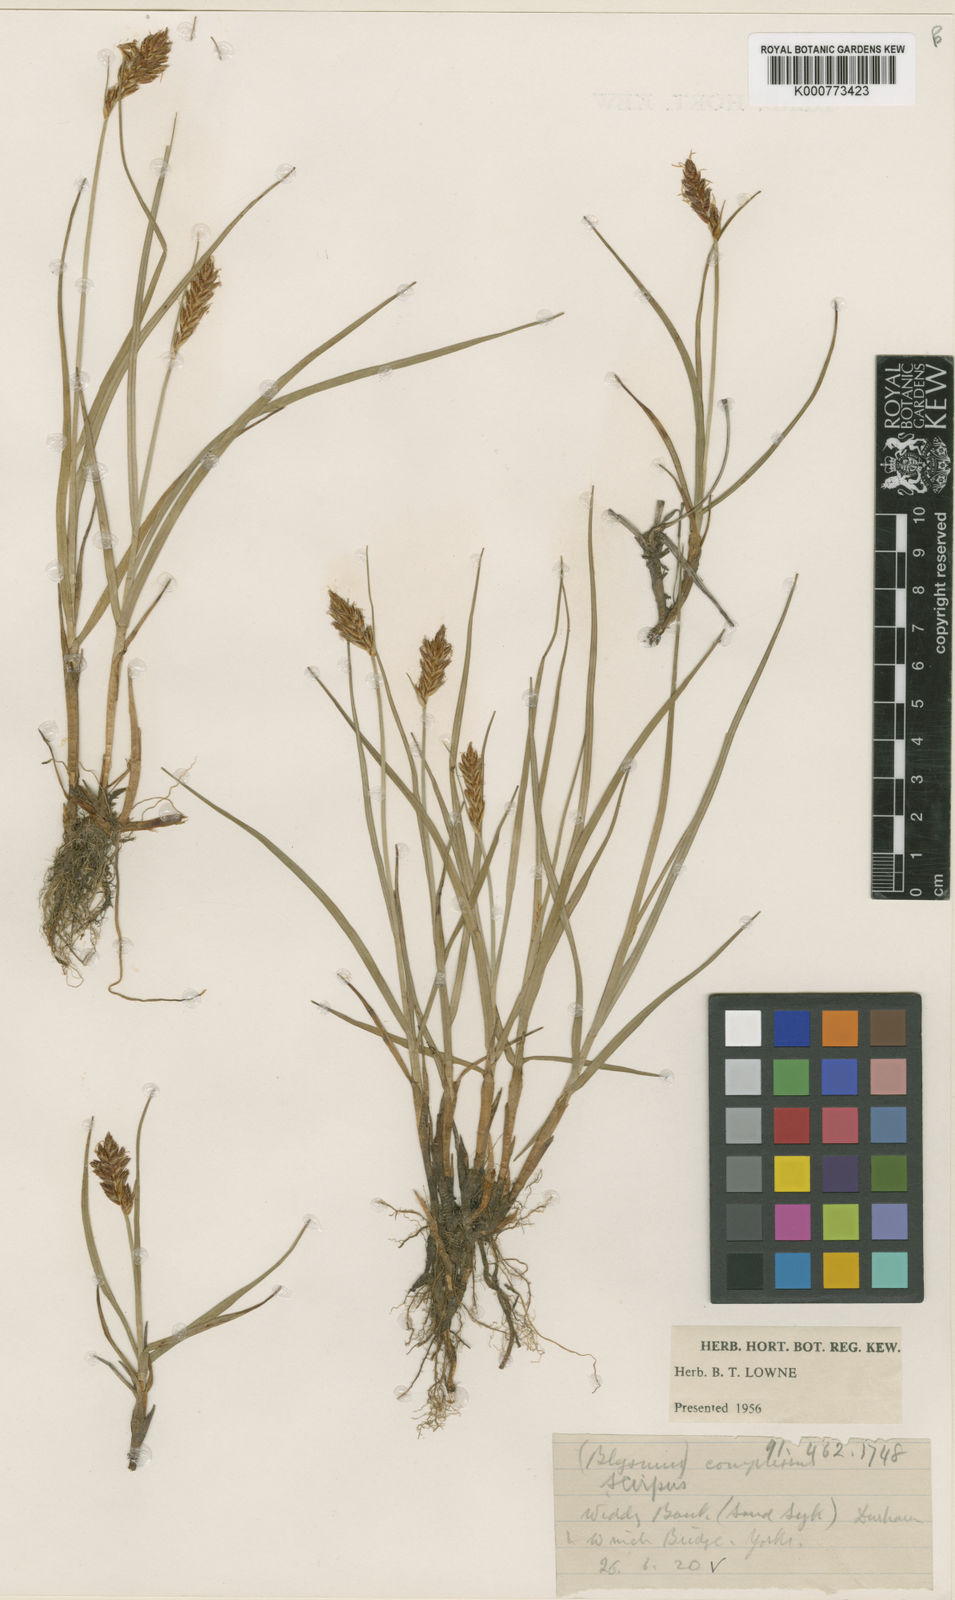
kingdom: Plantae
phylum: Tracheophyta
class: Liliopsida
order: Poales
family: Cyperaceae
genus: Blysmus
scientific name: Blysmus compressus
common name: Flat-sedge
